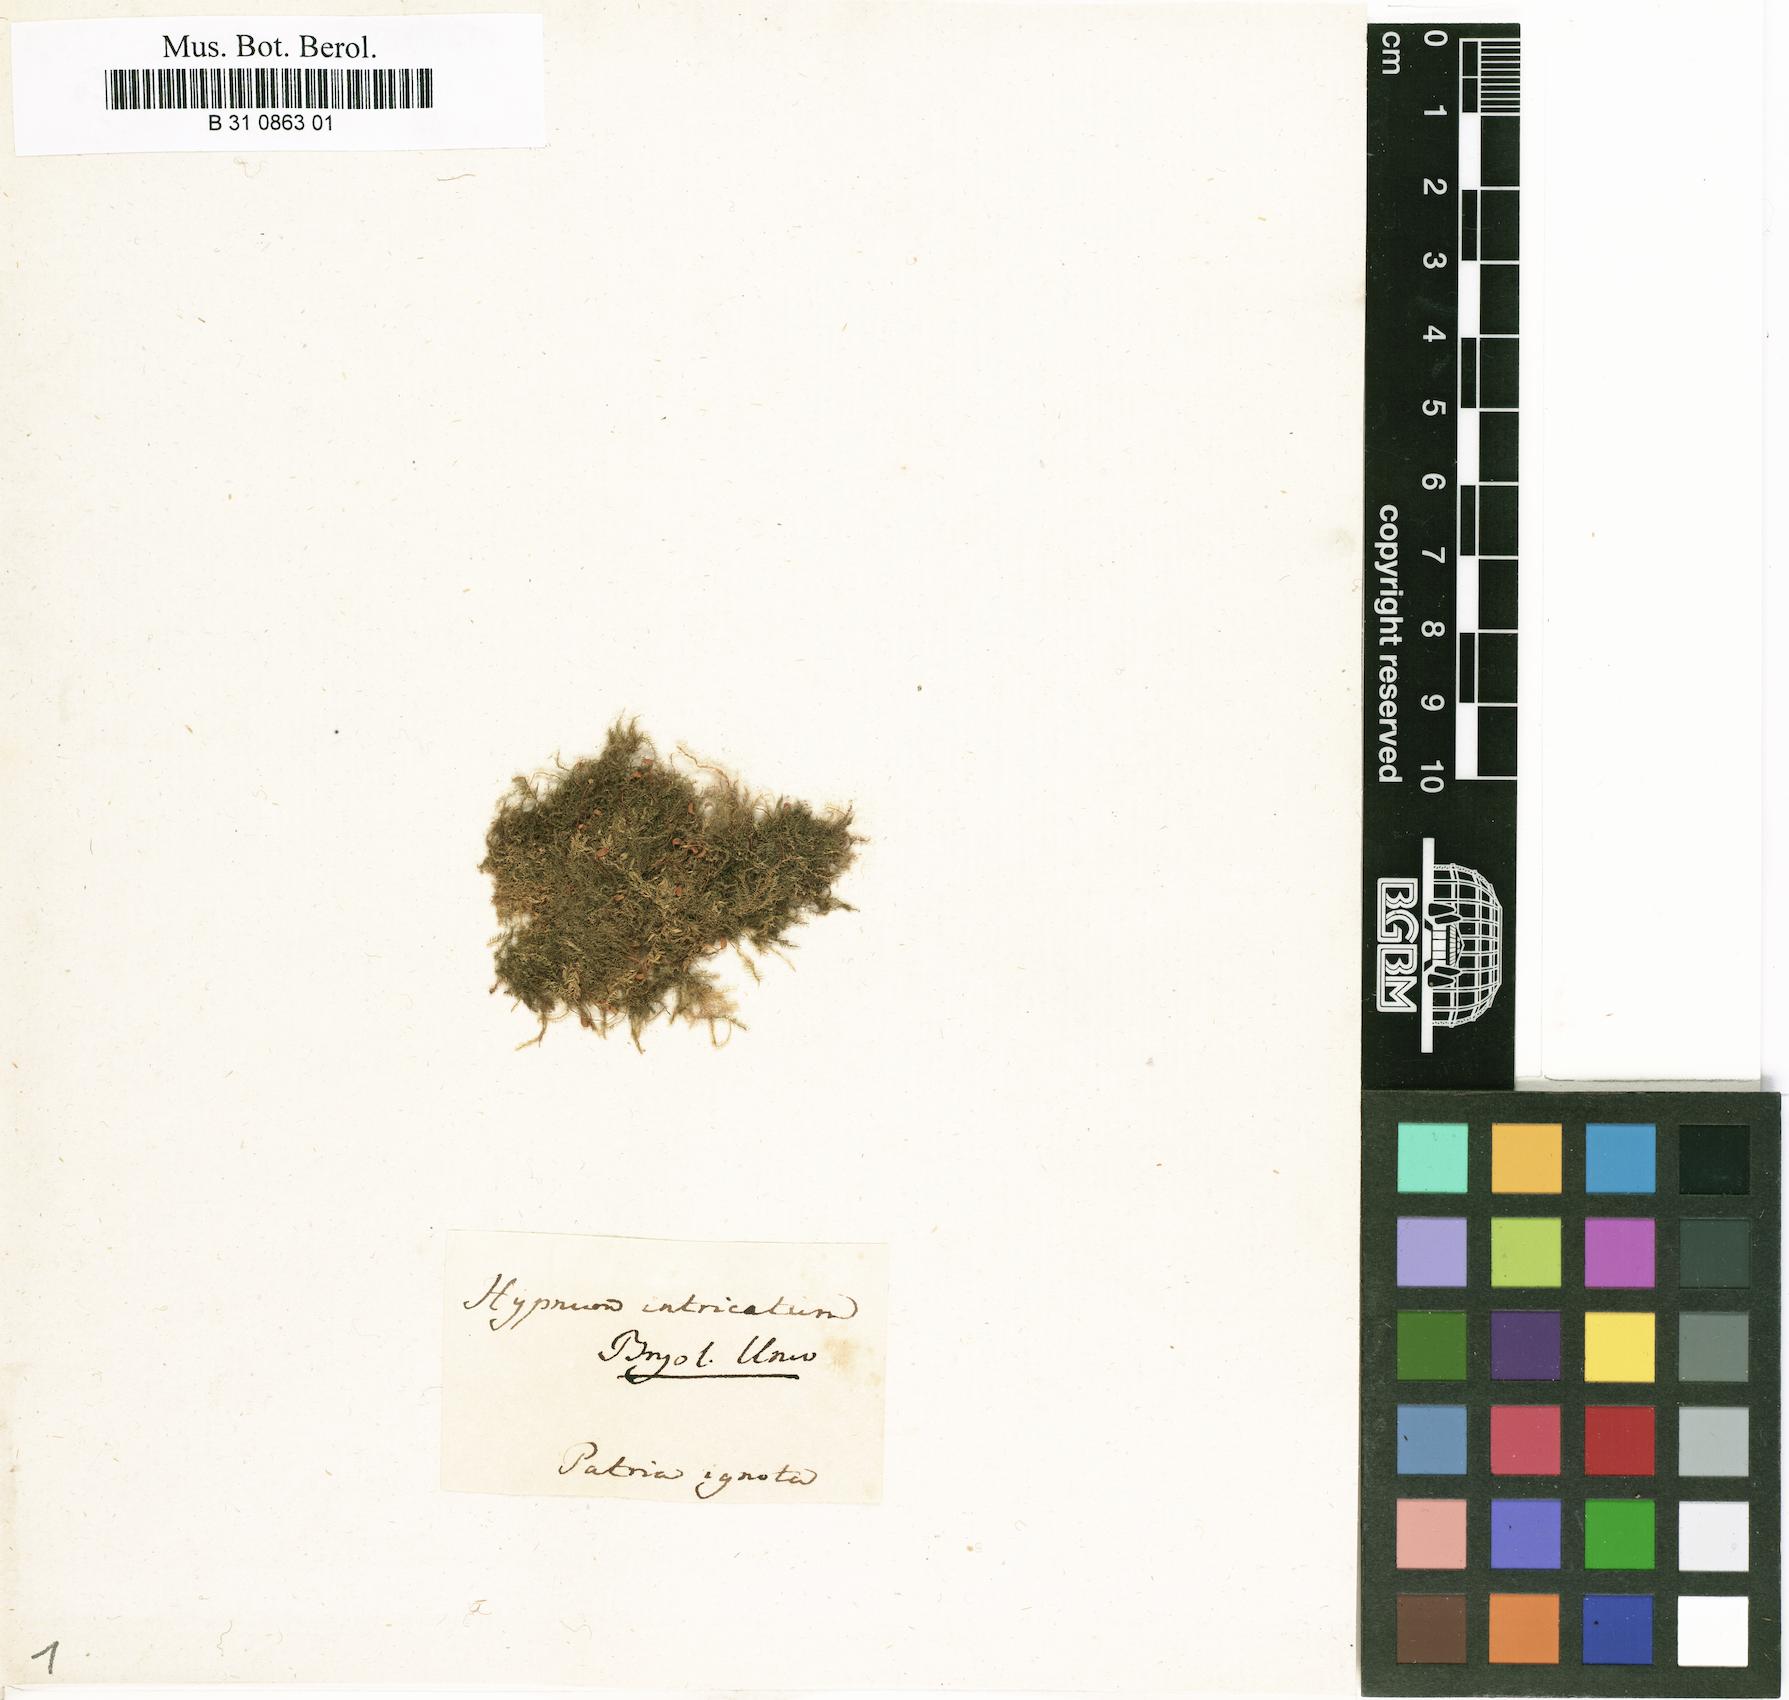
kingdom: Plantae
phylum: Bryophyta
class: Bryopsida
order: Hypnales
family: Brachytheciaceae
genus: Brachytheciastrum
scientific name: Brachytheciastrum velutinum
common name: Velvet feather-moss
